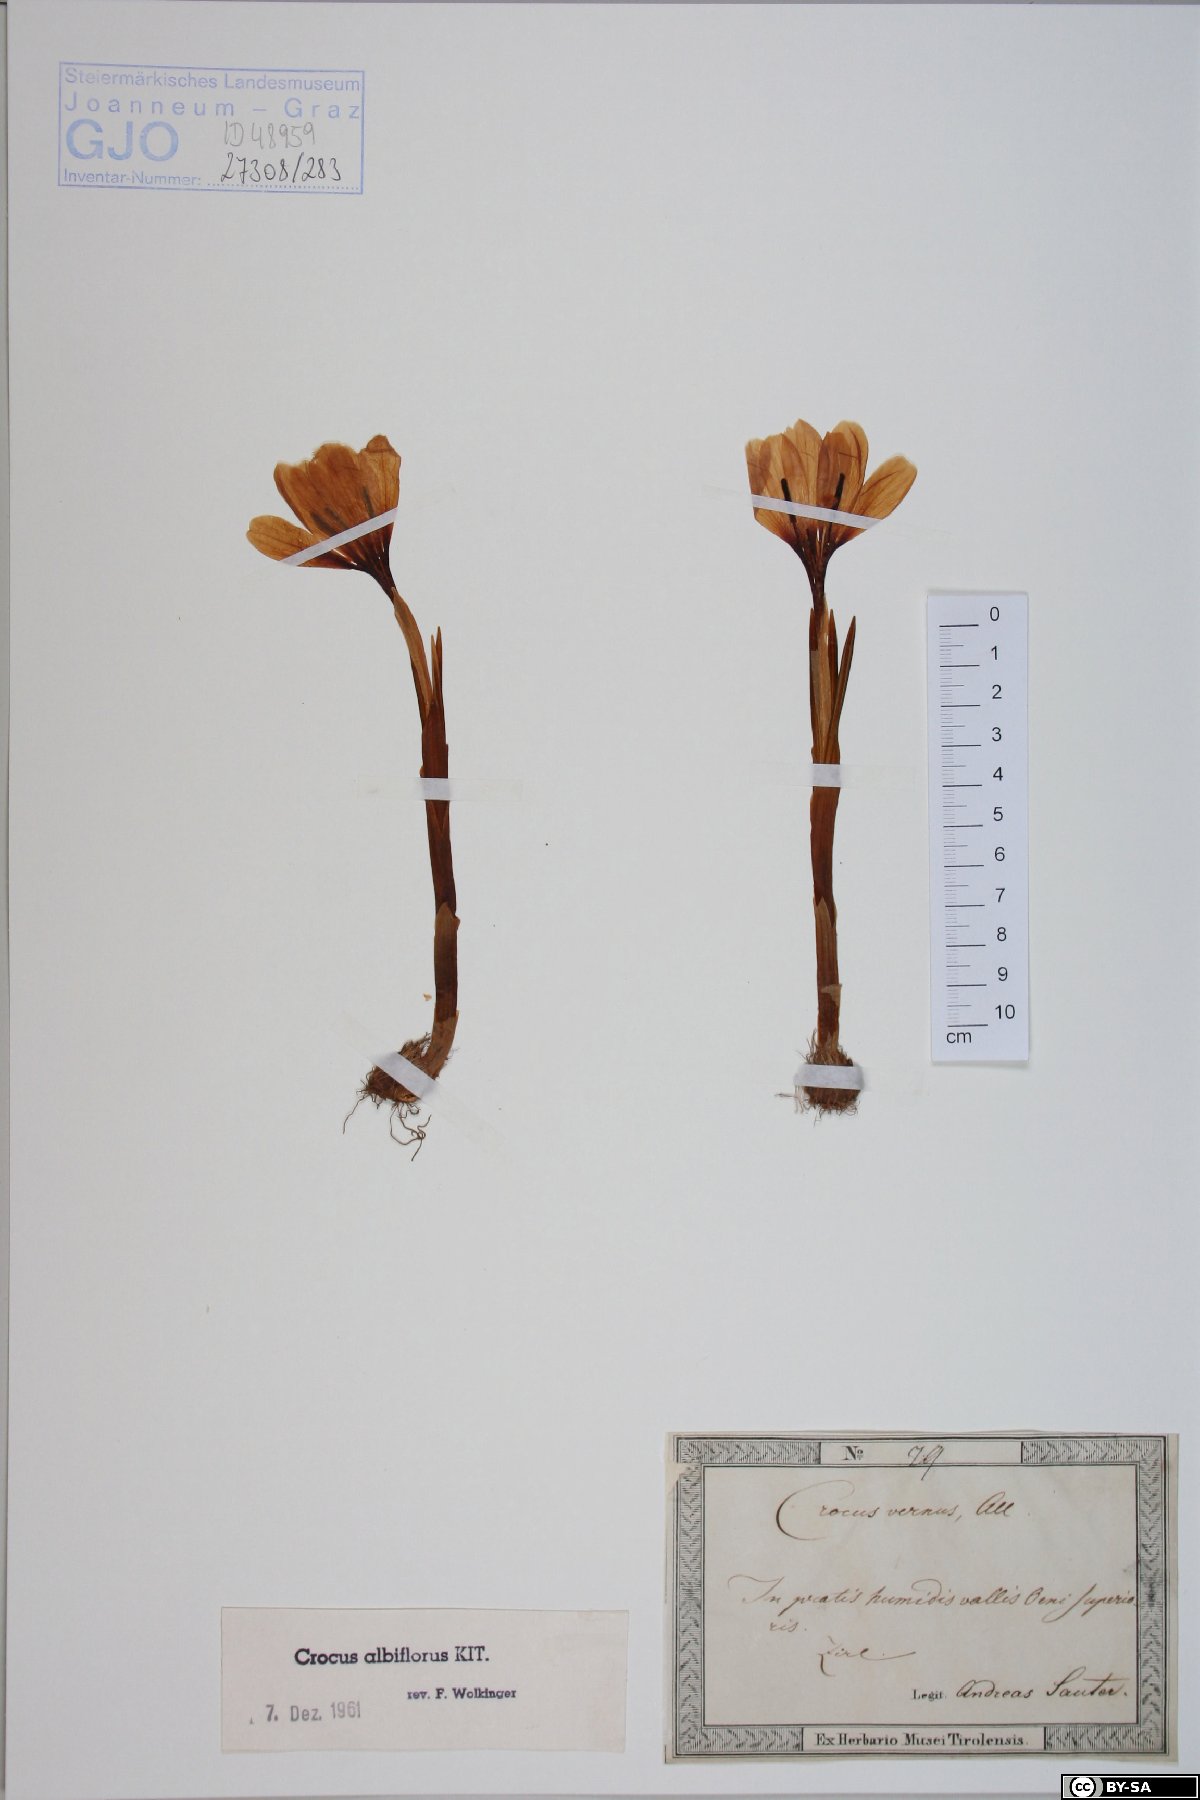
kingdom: Plantae
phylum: Tracheophyta
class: Liliopsida
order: Asparagales
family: Iridaceae
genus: Crocus
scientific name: Crocus vernus
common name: Spring crocus
